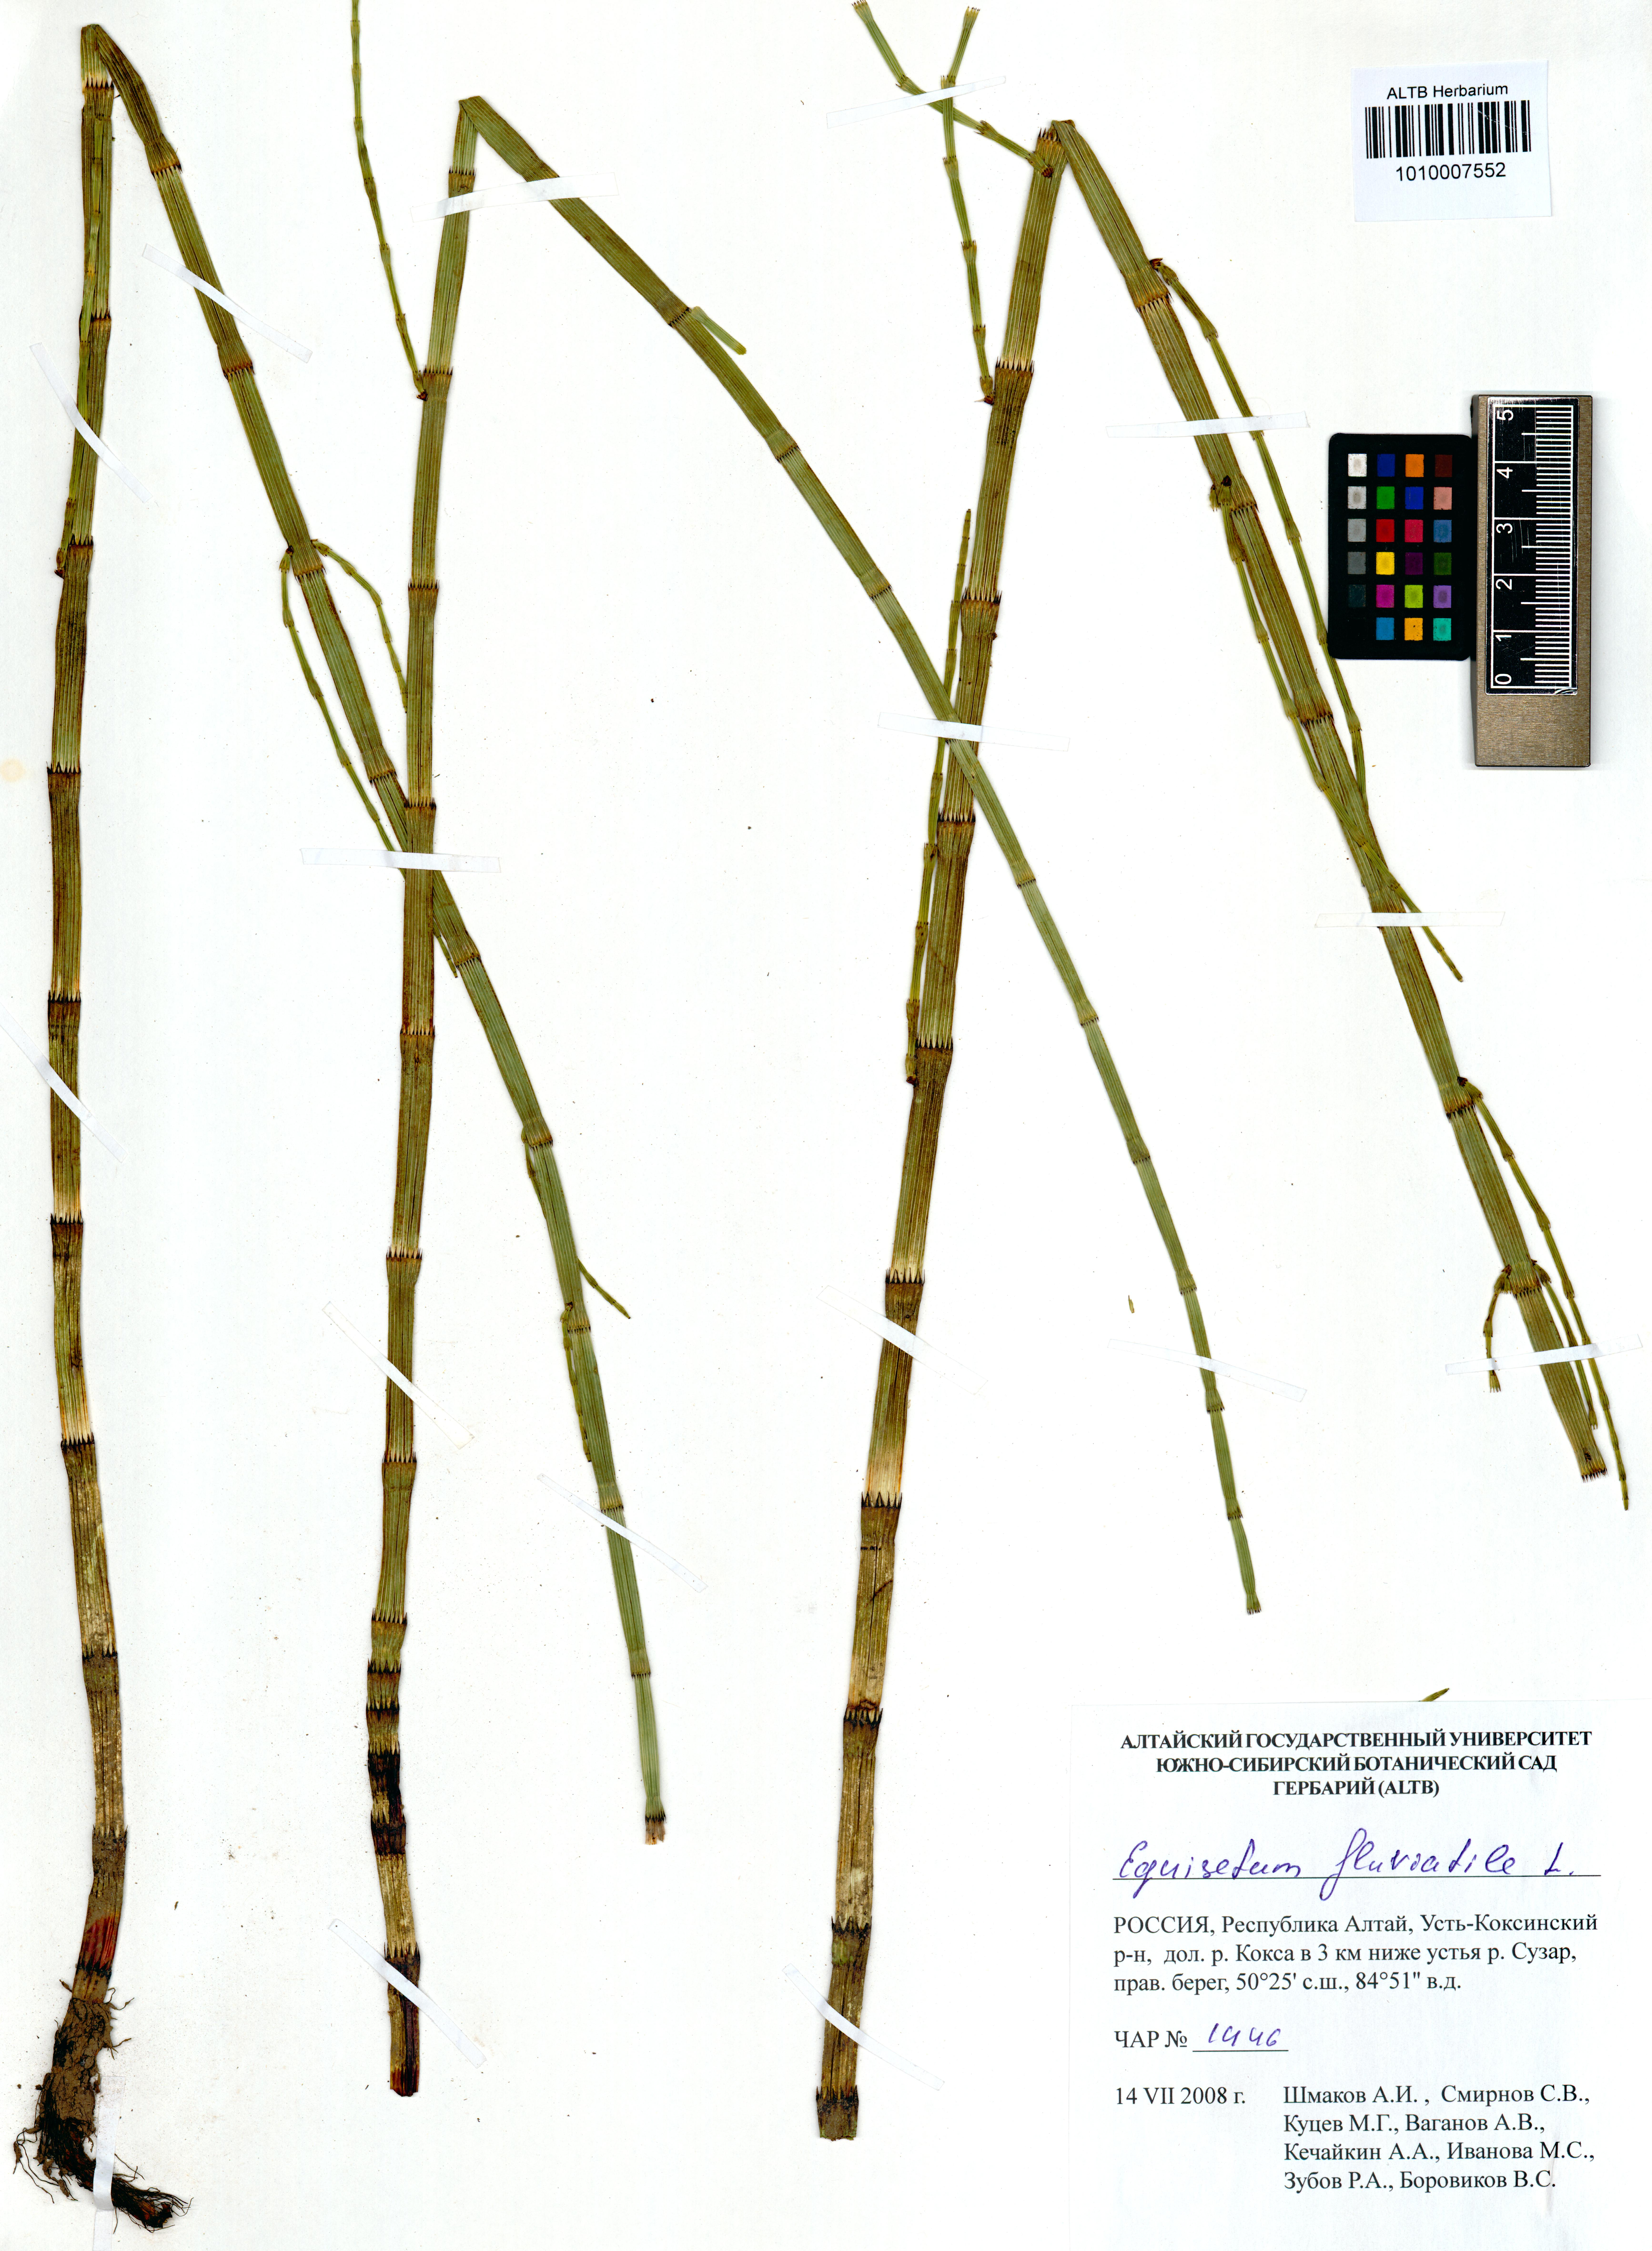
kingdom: Plantae
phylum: Tracheophyta
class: Polypodiopsida
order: Equisetales
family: Equisetaceae
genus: Equisetum
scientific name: Equisetum fluviatile
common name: Water horsetail
